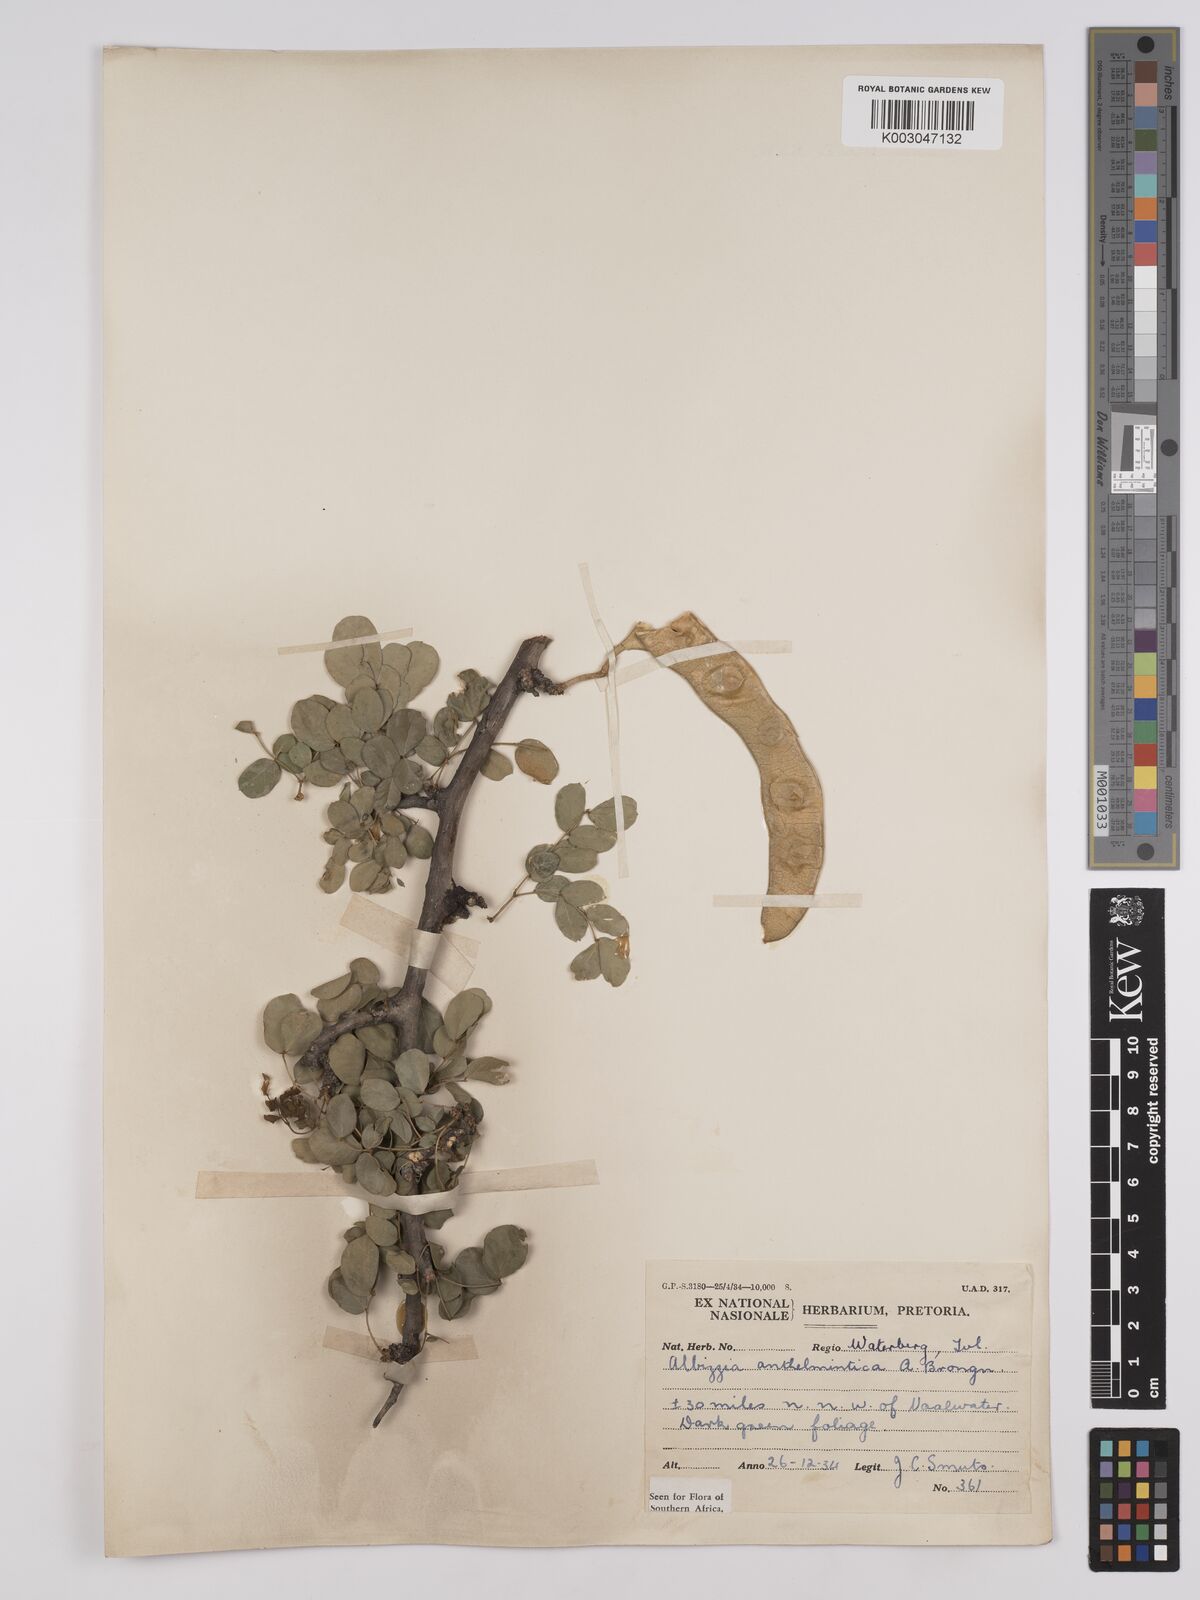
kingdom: Plantae
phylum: Tracheophyta
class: Magnoliopsida
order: Fabales
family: Fabaceae
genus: Albizia
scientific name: Albizia anthelmintica
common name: Worm-bark false-thorn
